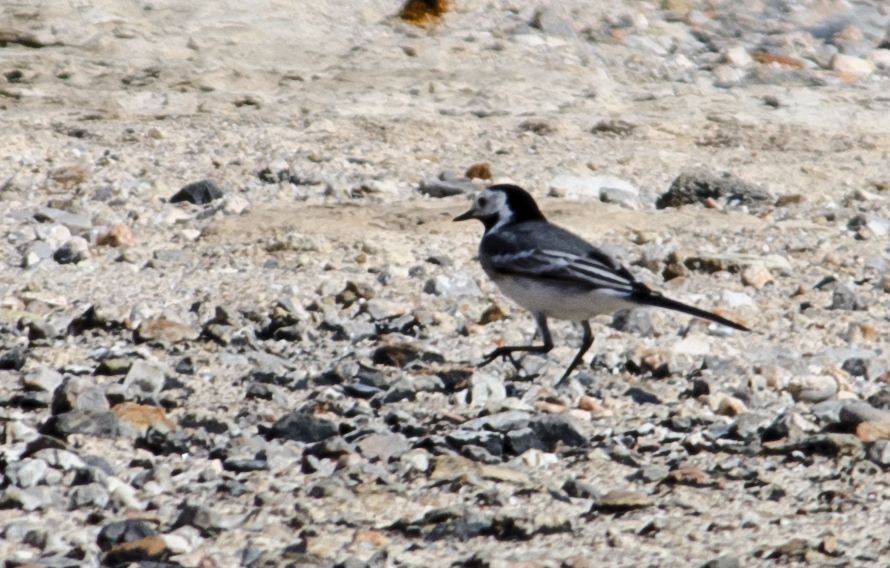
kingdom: Animalia
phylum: Chordata
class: Aves
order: Passeriformes
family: Motacillidae
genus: Motacilla
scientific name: Motacilla alba
